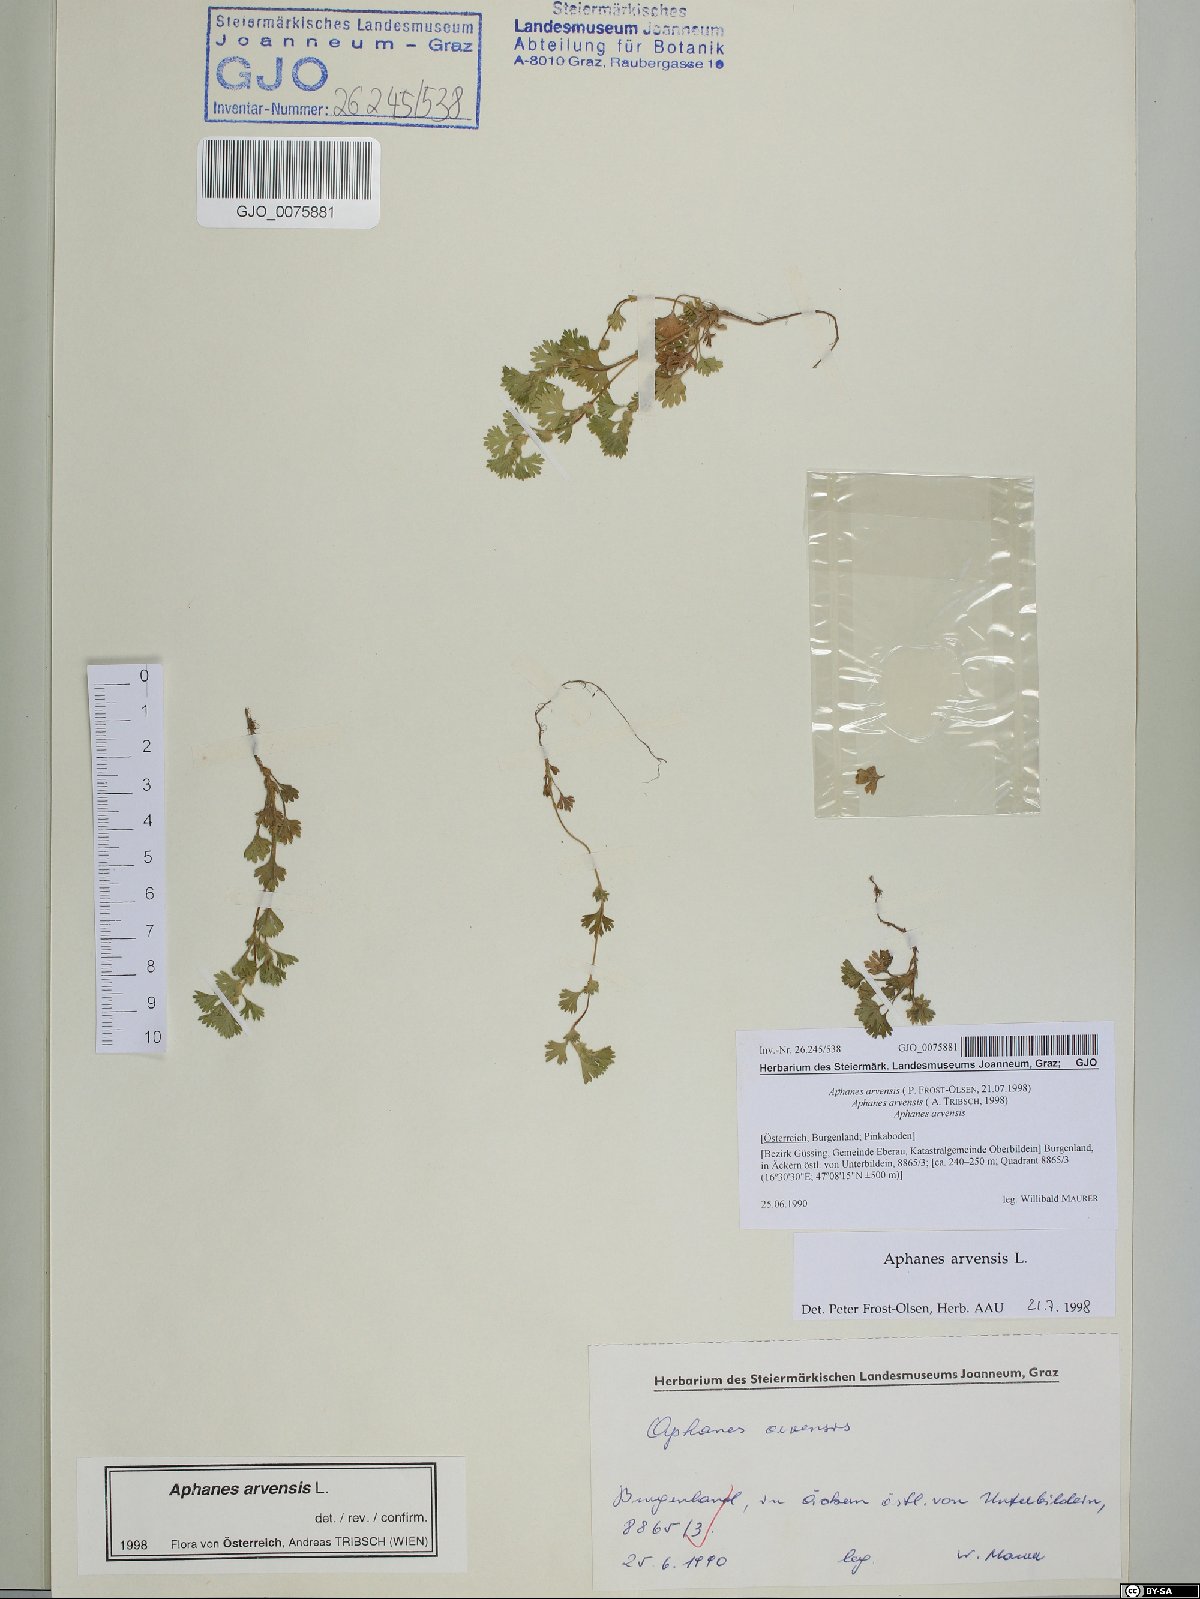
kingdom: Plantae
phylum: Tracheophyta
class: Magnoliopsida
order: Rosales
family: Rosaceae
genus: Aphanes
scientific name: Aphanes arvensis
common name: Parsley-piert
